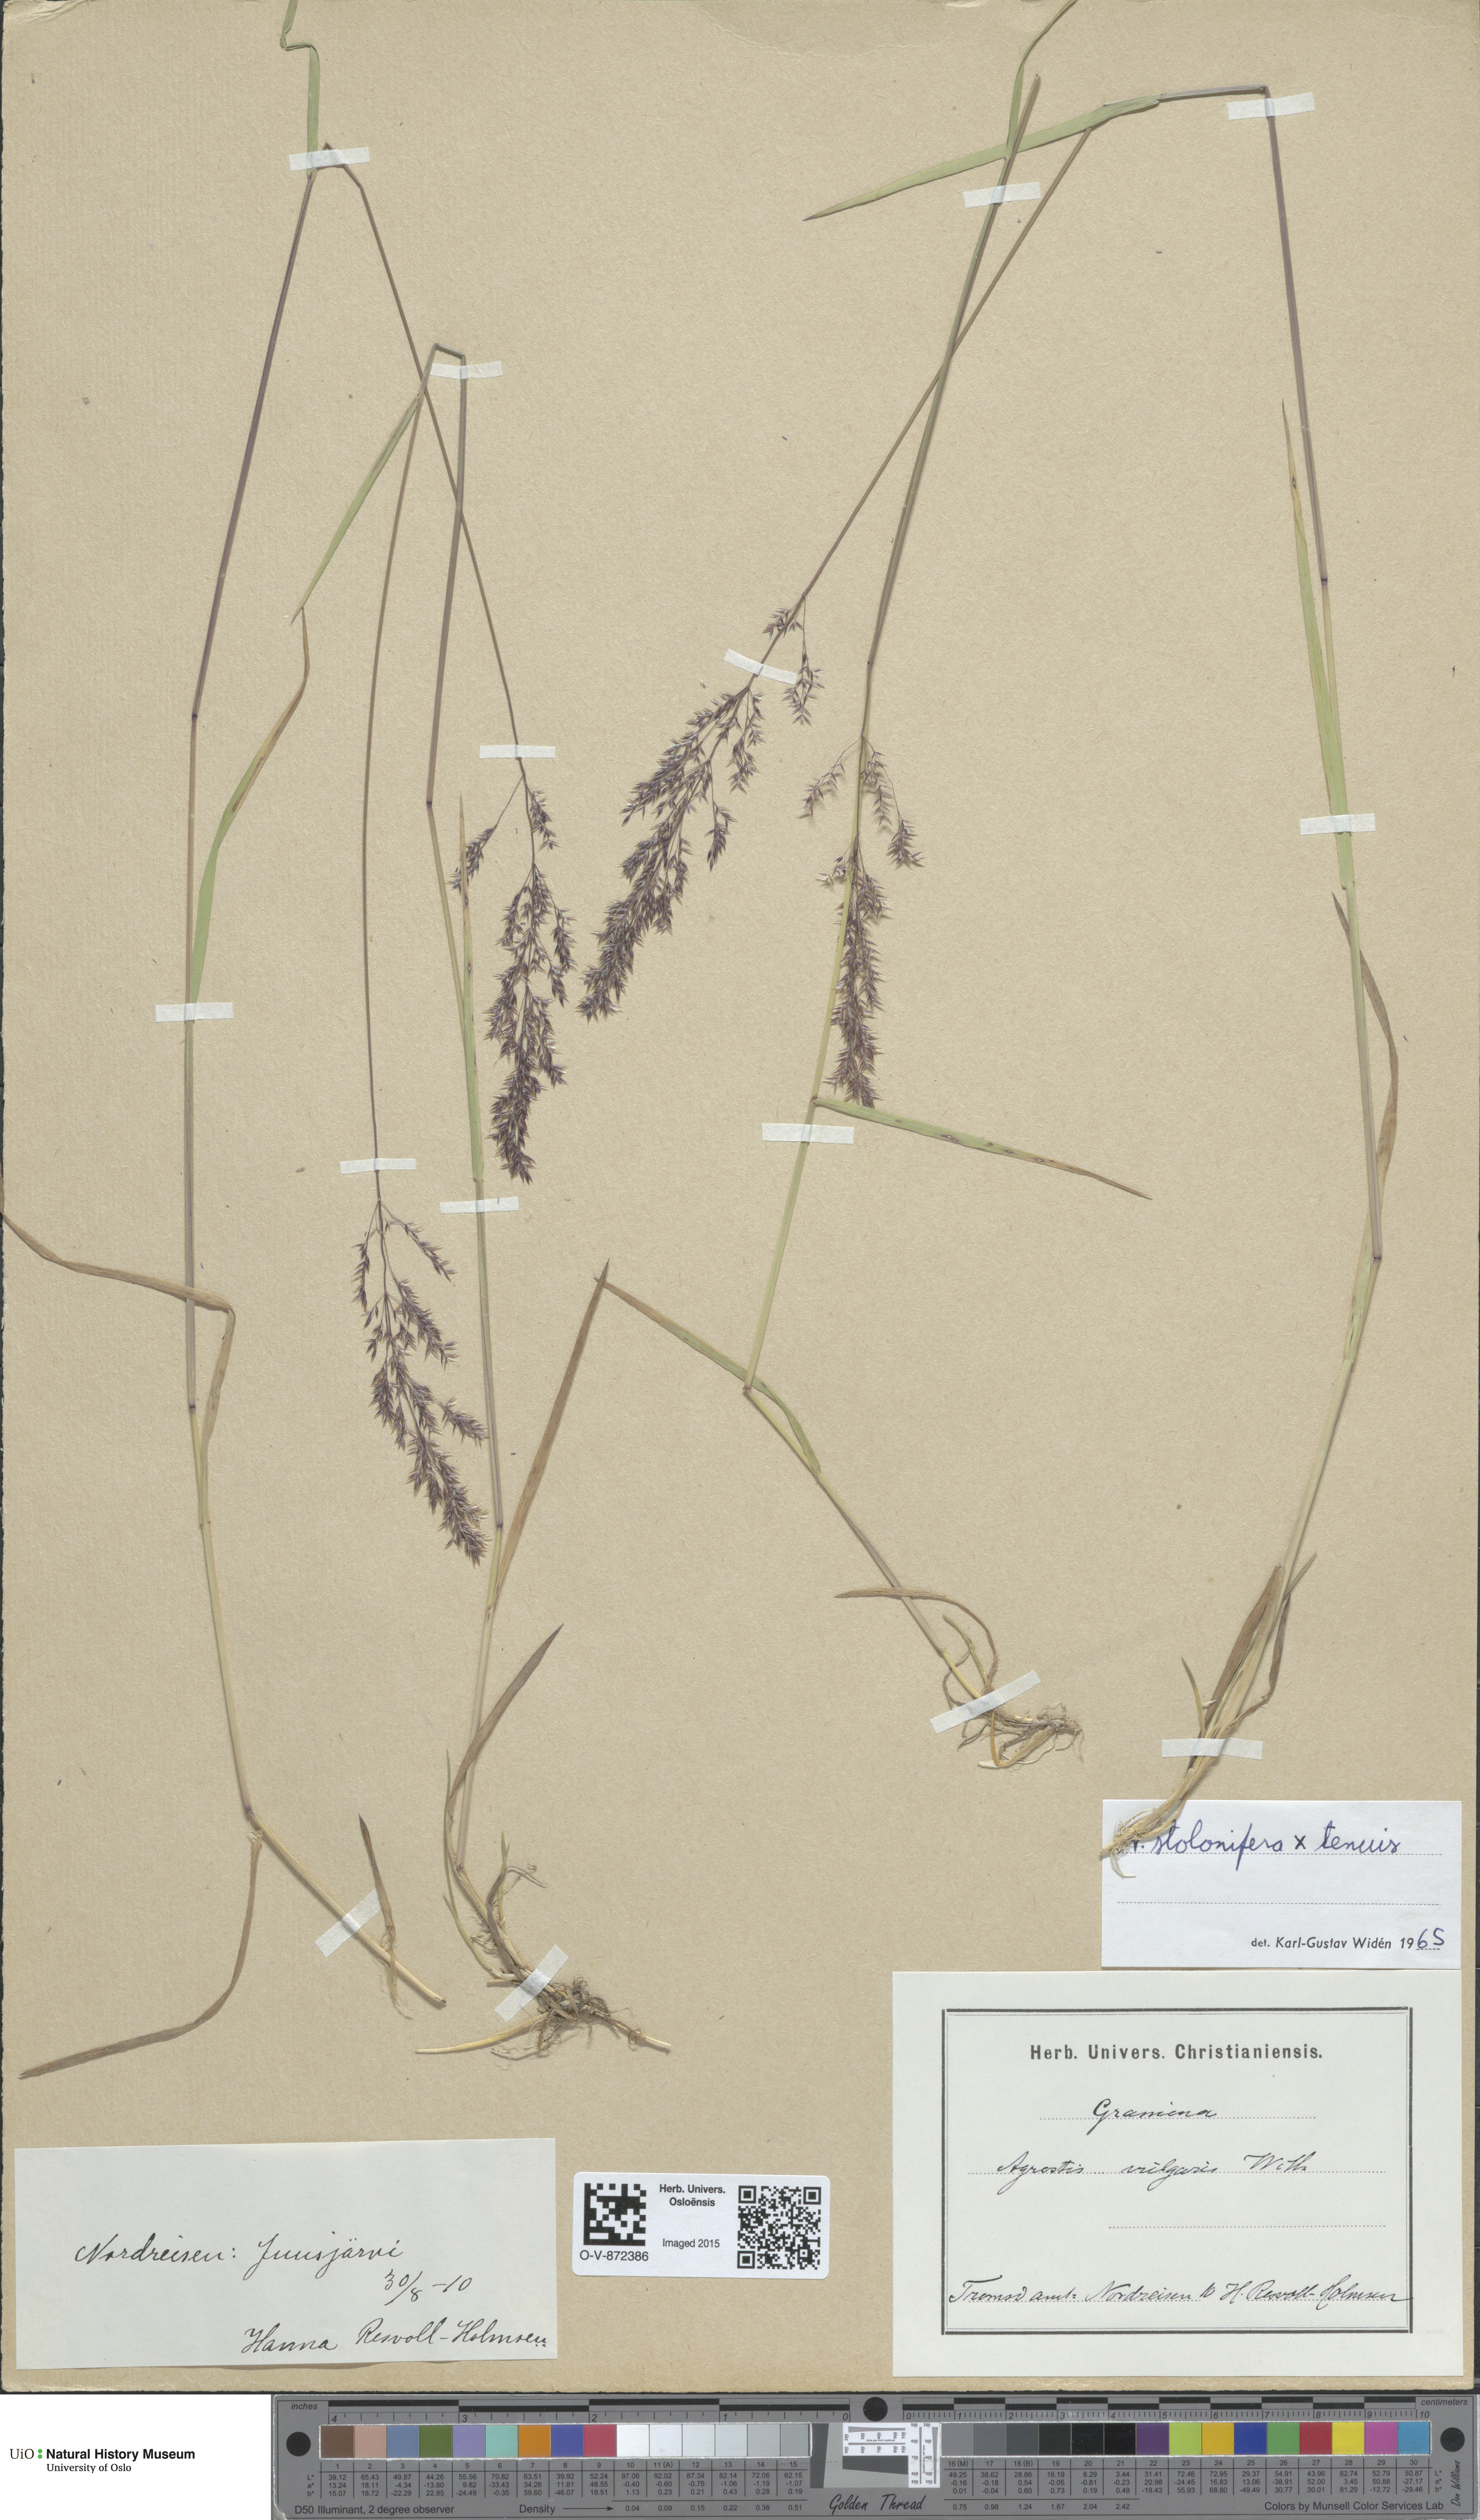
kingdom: Plantae
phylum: Tracheophyta
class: Liliopsida
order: Poales
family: Poaceae
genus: Agrostis
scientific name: Agrostis
